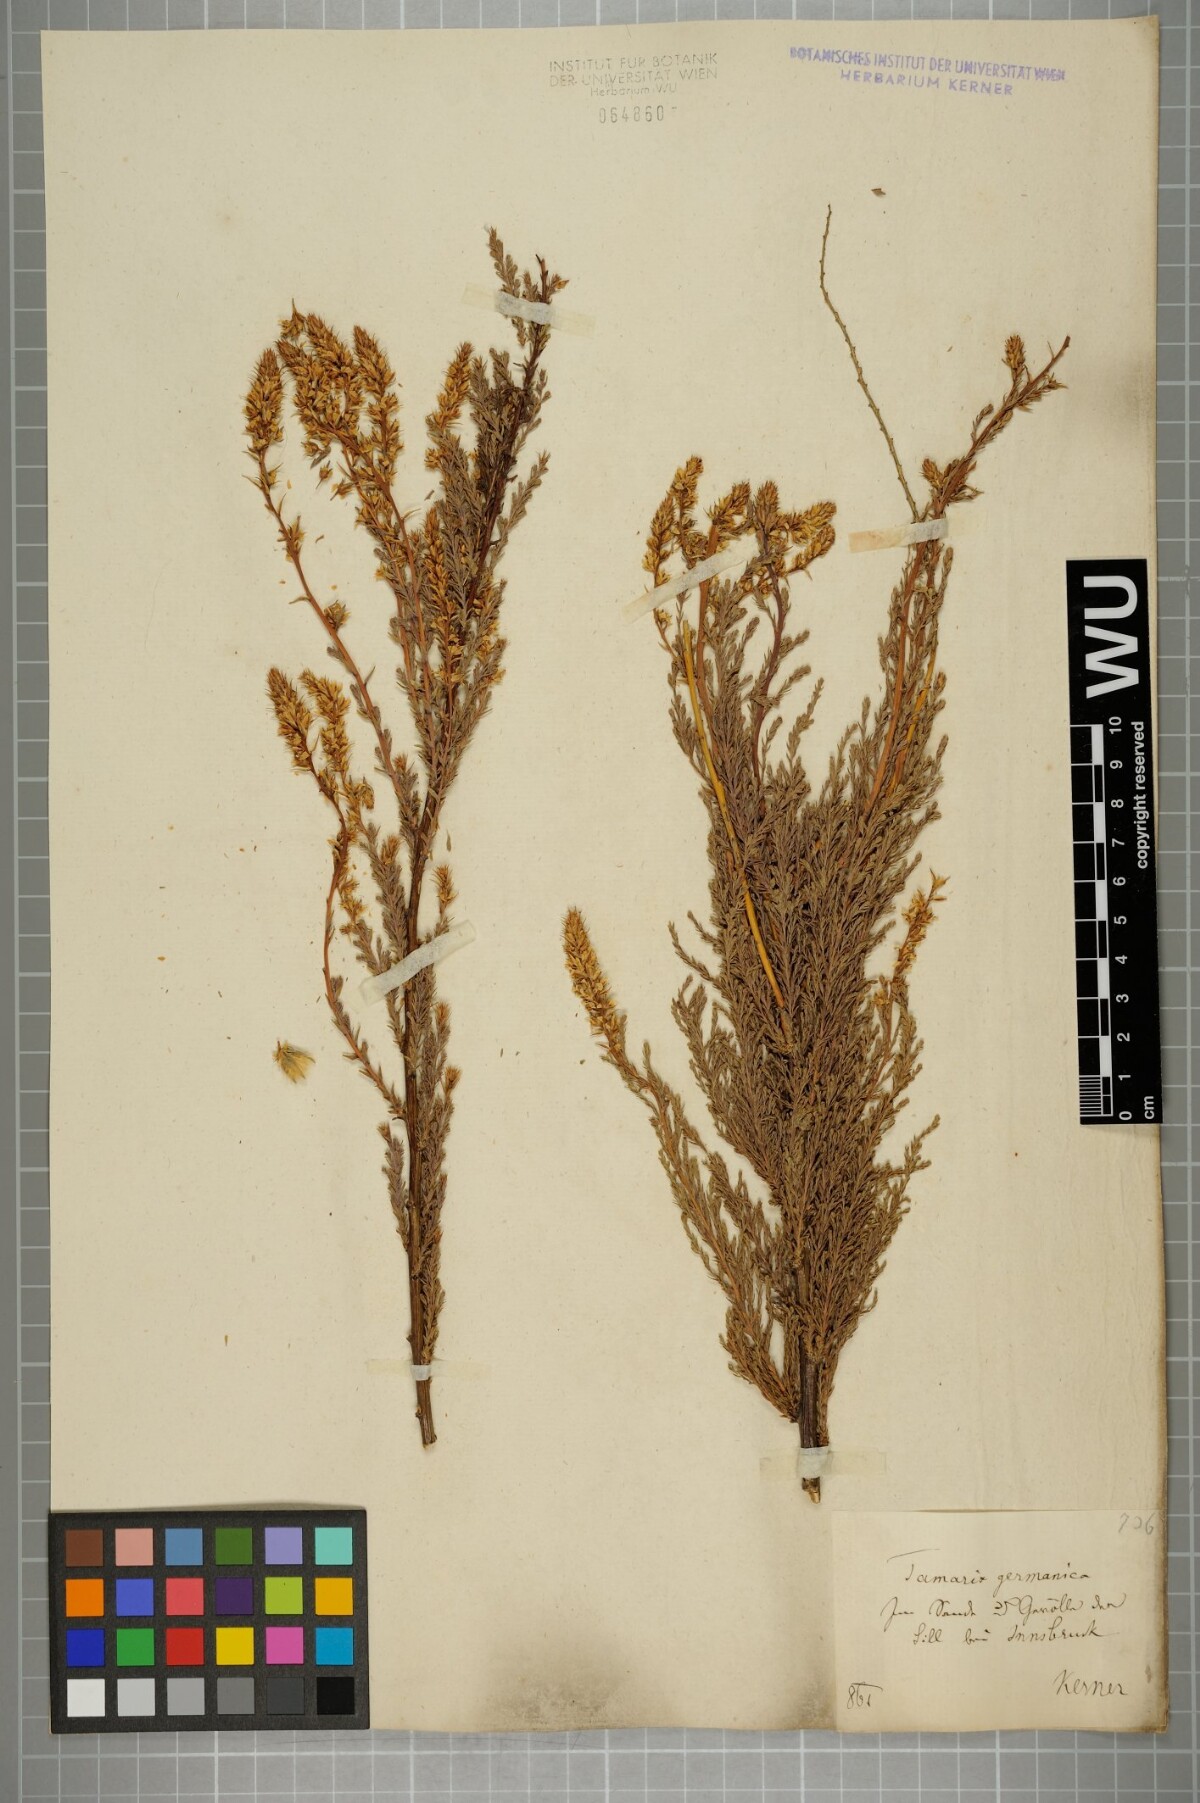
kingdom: Plantae
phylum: Tracheophyta
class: Magnoliopsida
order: Caryophyllales
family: Tamaricaceae
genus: Myricaria
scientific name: Myricaria germanica
